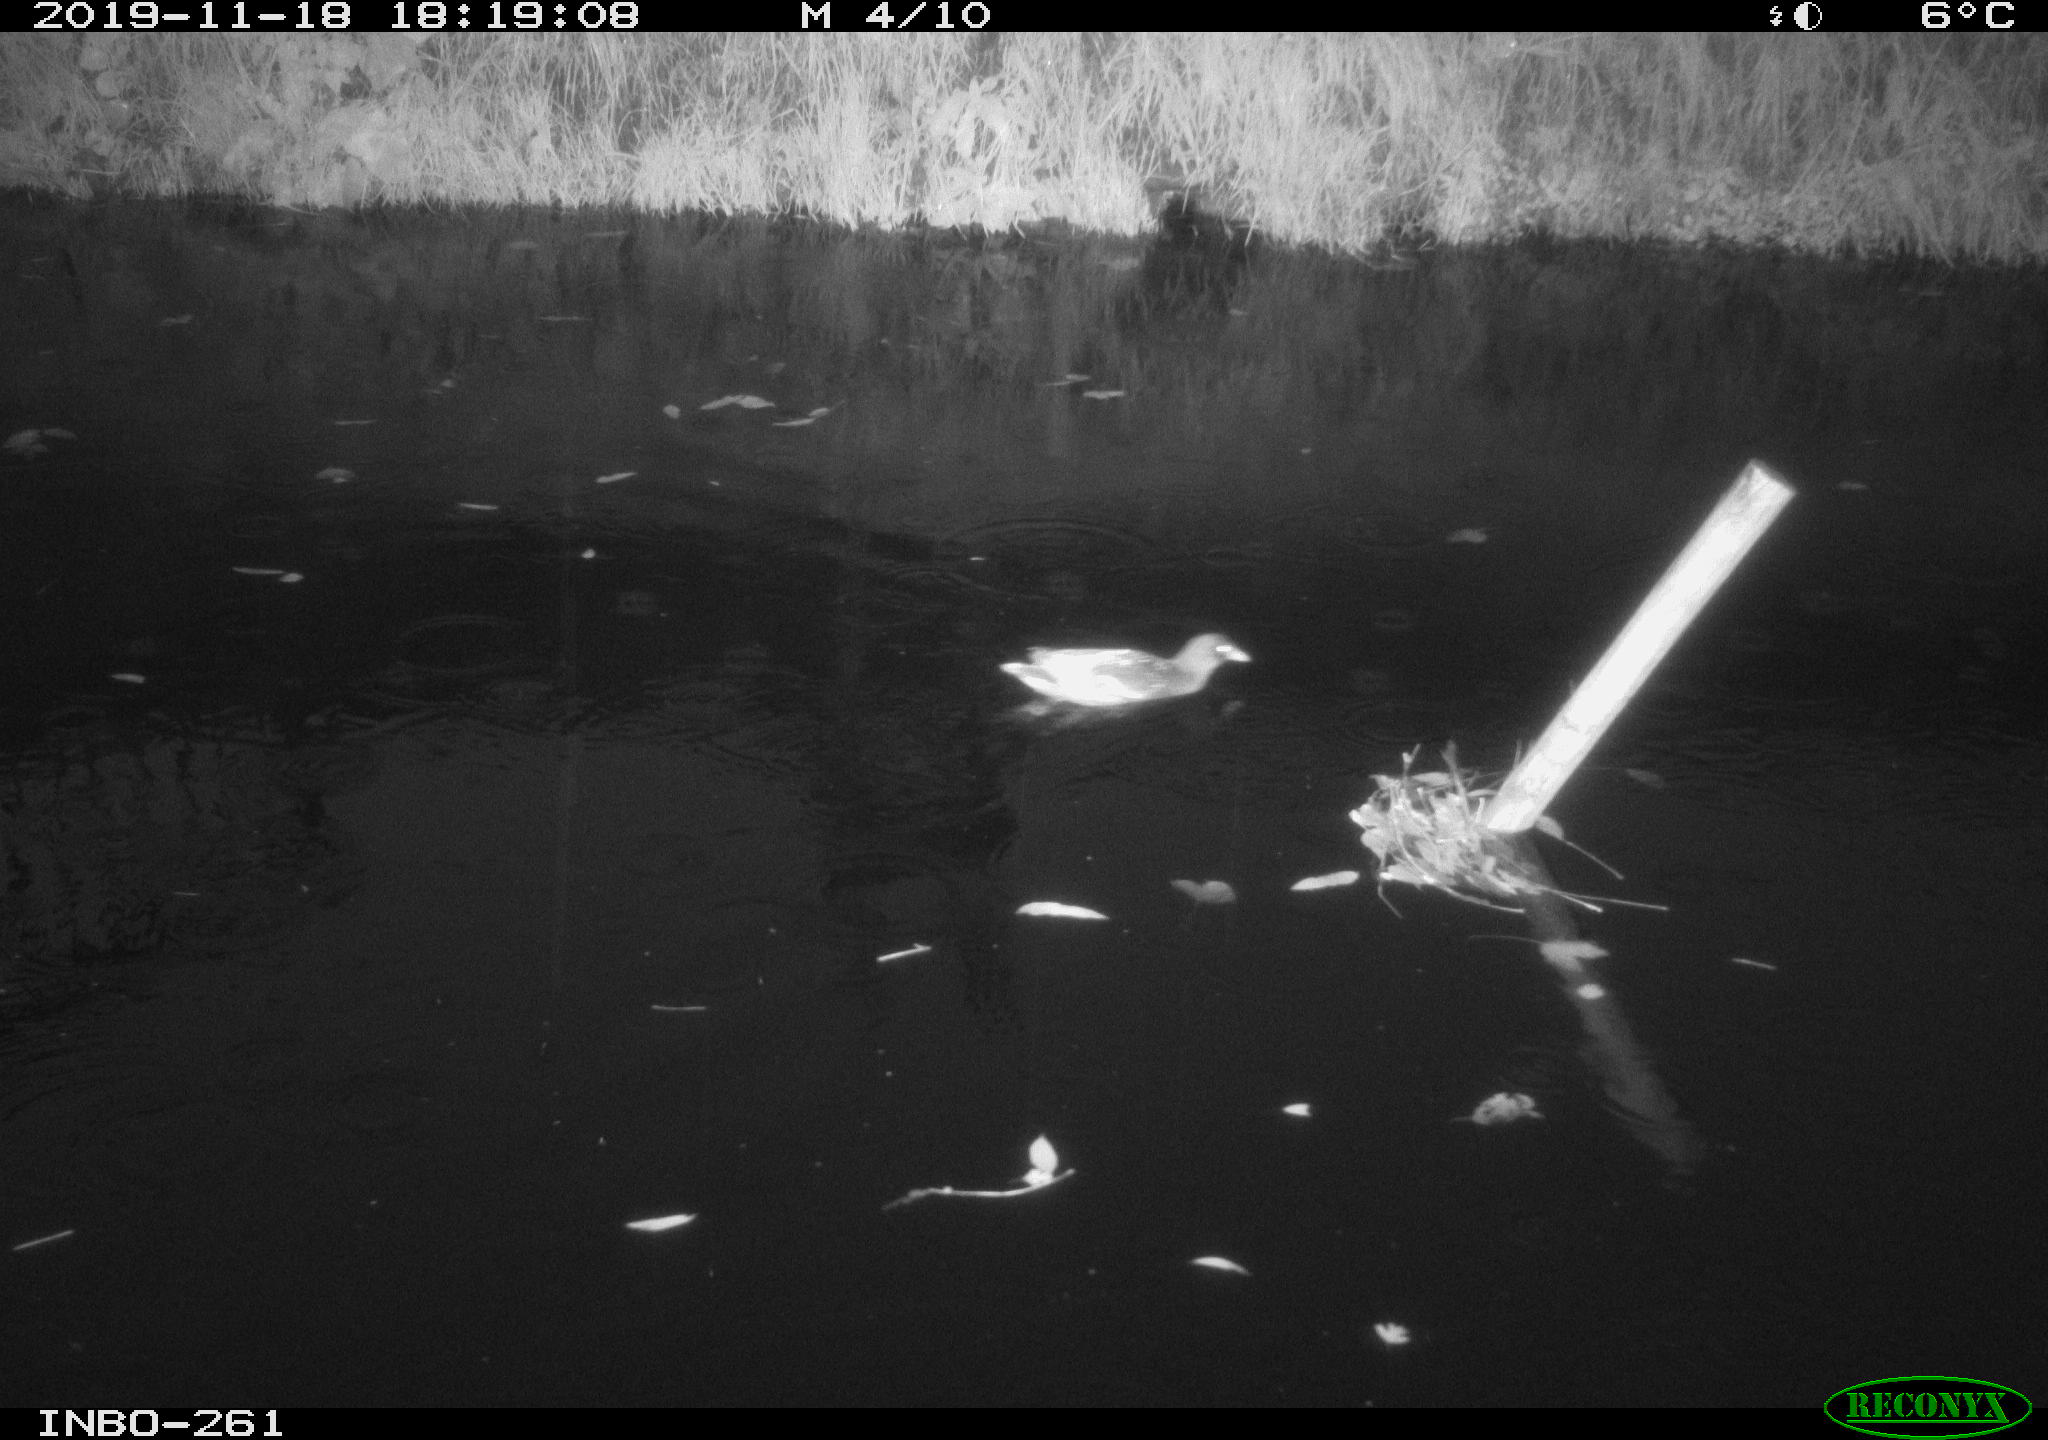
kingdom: Animalia
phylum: Chordata
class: Aves
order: Gruiformes
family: Rallidae
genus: Gallinula
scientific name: Gallinula chloropus
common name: Common moorhen
